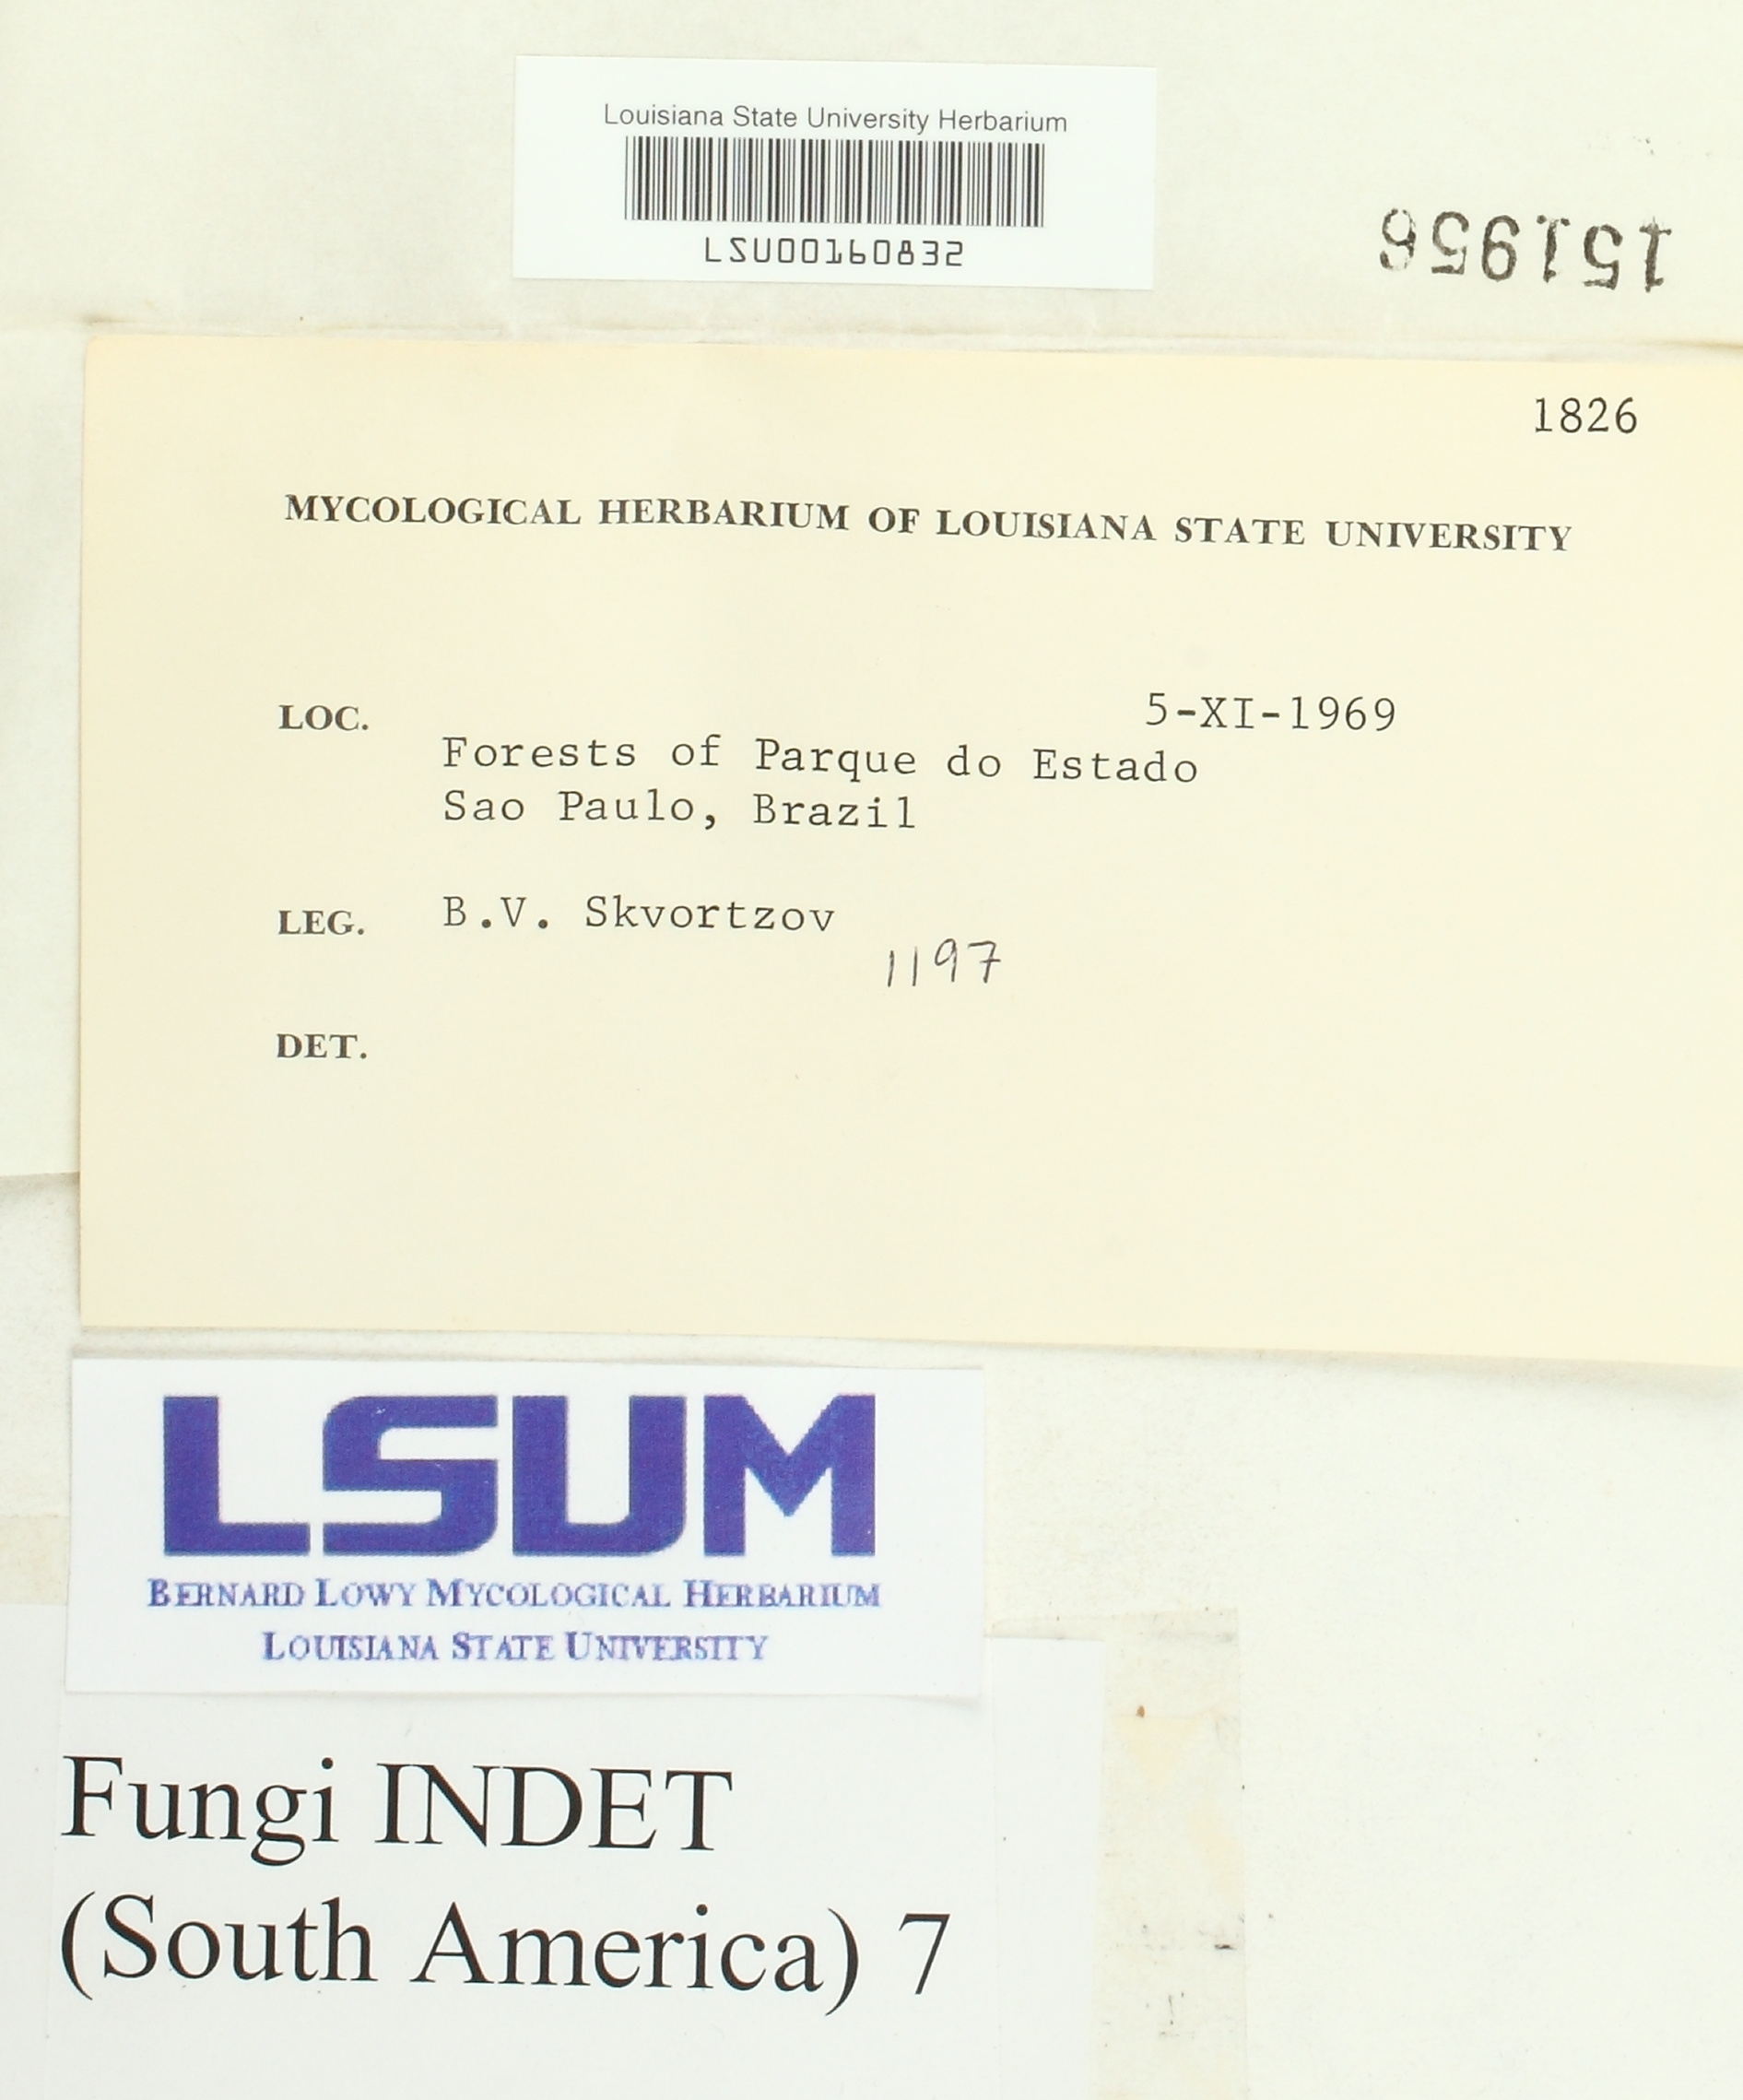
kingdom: Fungi
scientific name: Fungi
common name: Fungi
